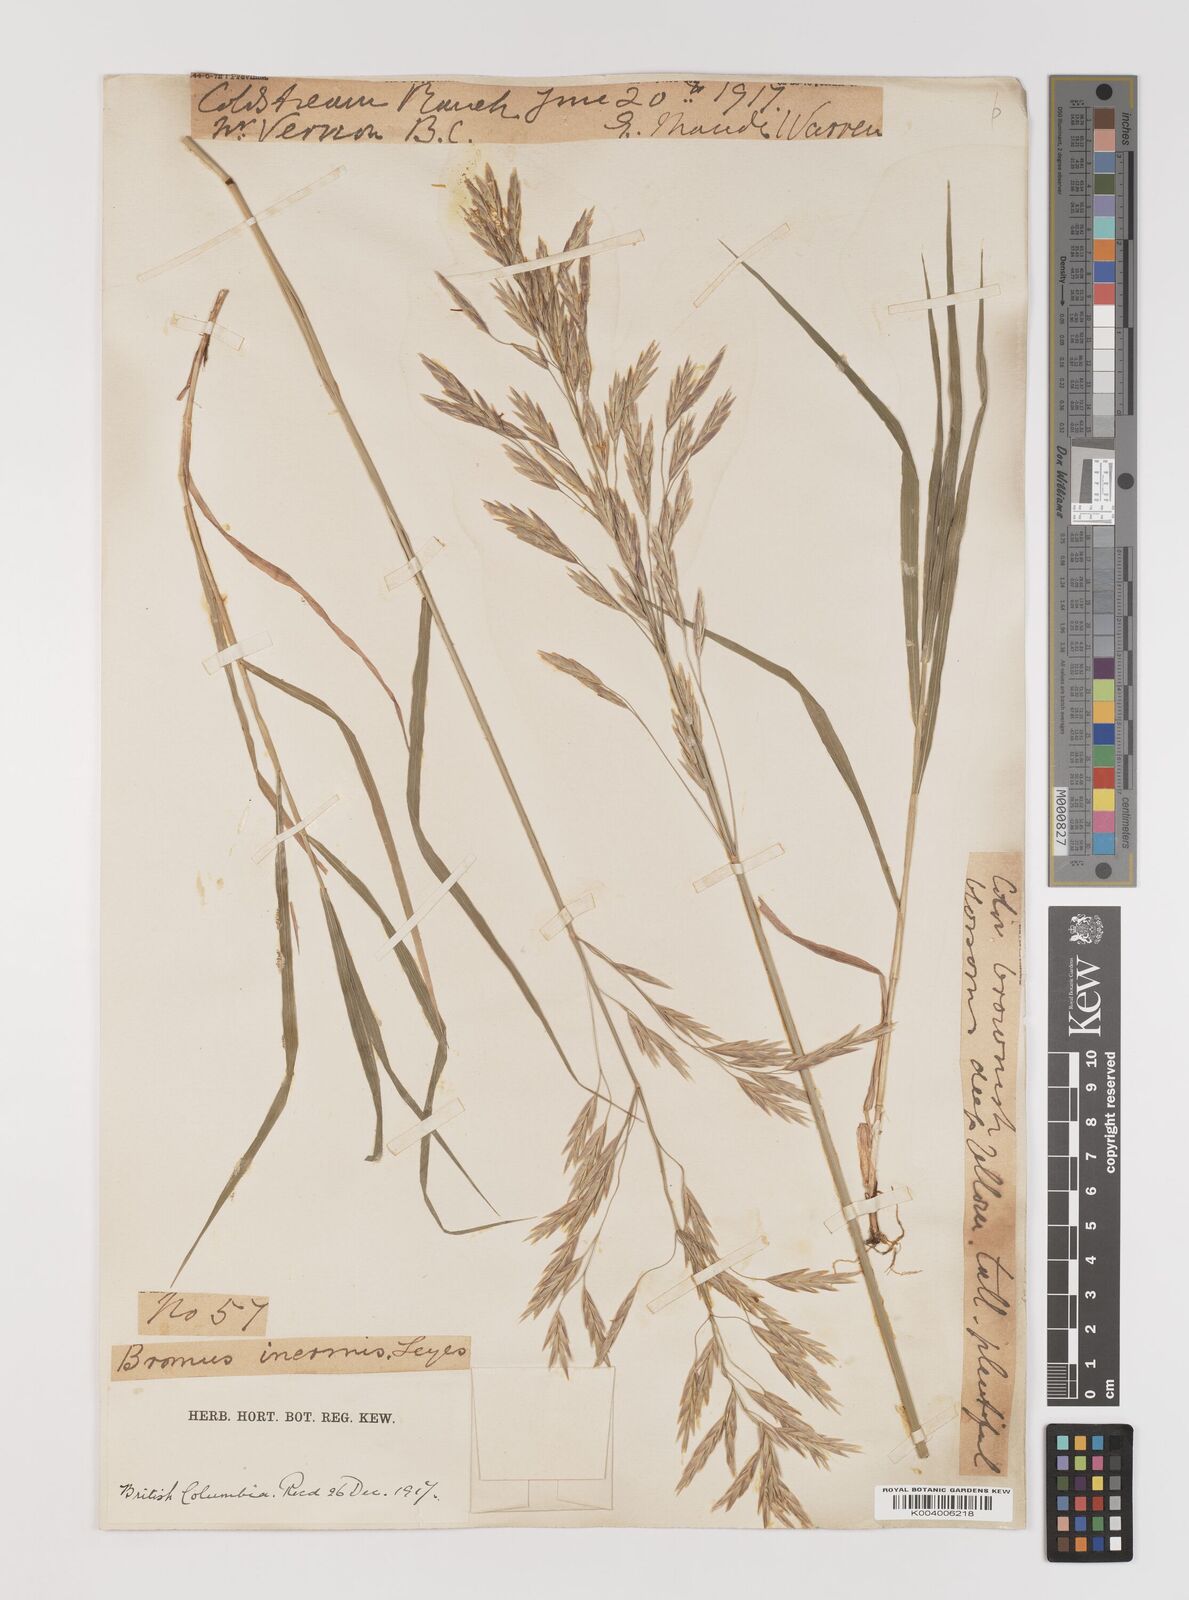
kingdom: Plantae
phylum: Tracheophyta
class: Liliopsida
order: Poales
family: Poaceae
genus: Bromus
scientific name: Bromus inermis
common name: Smooth brome
